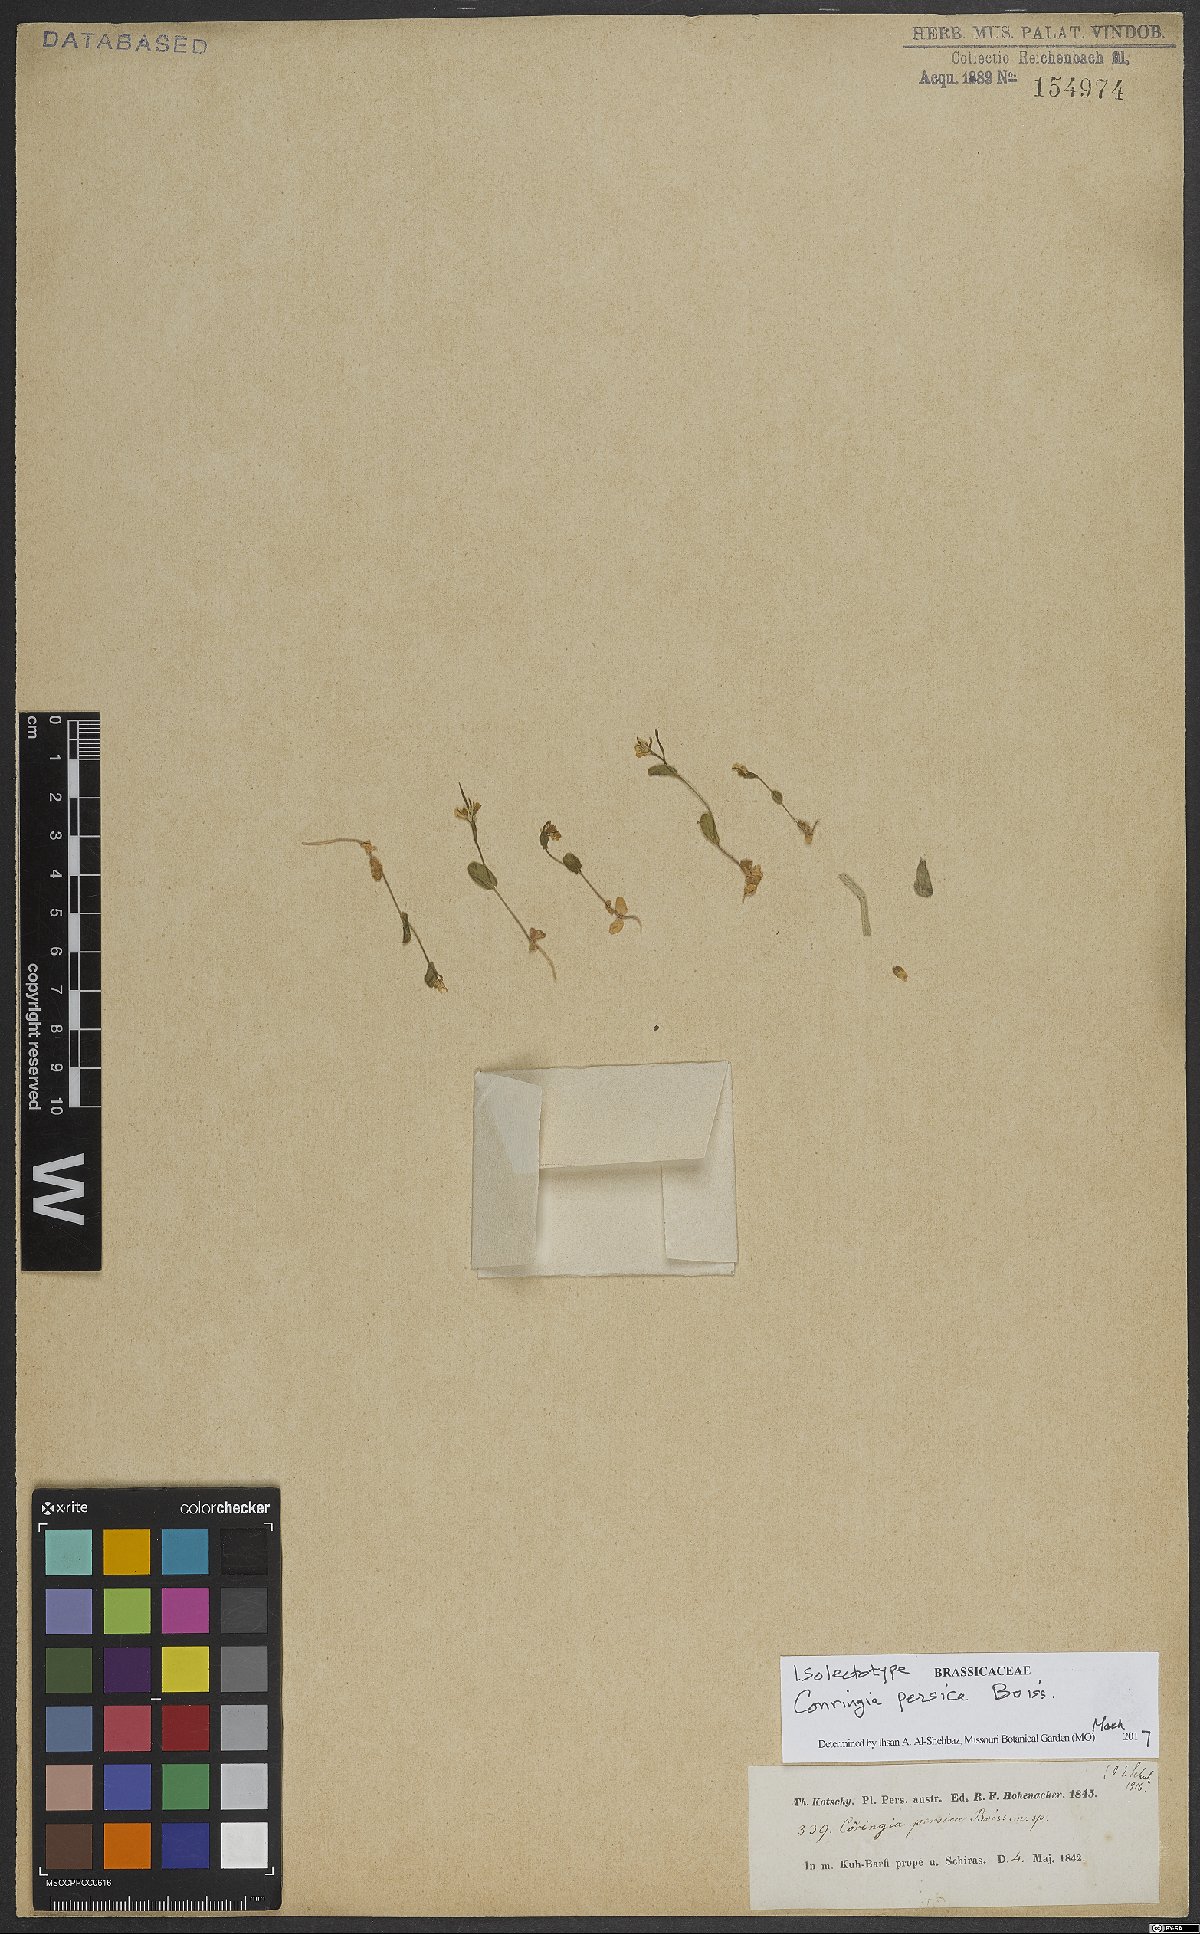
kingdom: Plantae
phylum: Tracheophyta
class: Magnoliopsida
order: Brassicales
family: Brassicaceae
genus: Conringia
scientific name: Conringia persica
